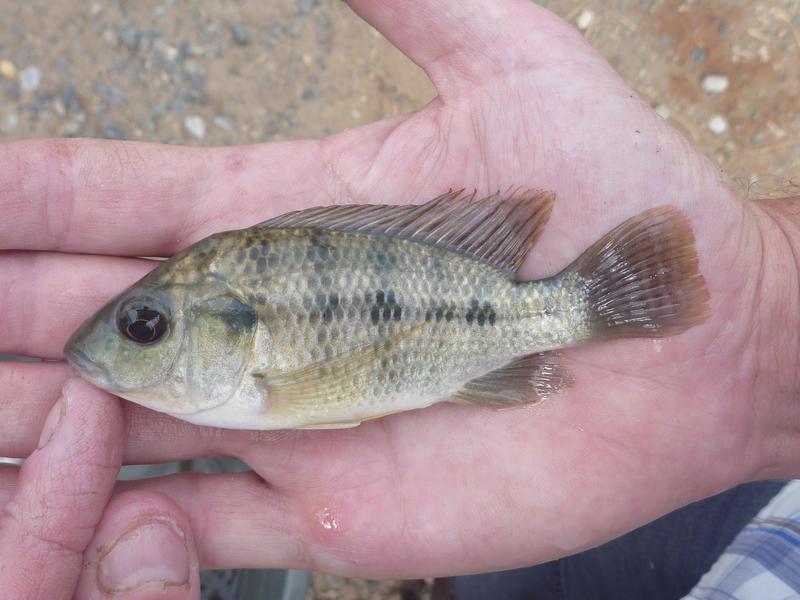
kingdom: Animalia
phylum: Chordata
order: Perciformes
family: Cichlidae
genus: Oreochromis
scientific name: Oreochromis urolepis
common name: Wami tilapia
